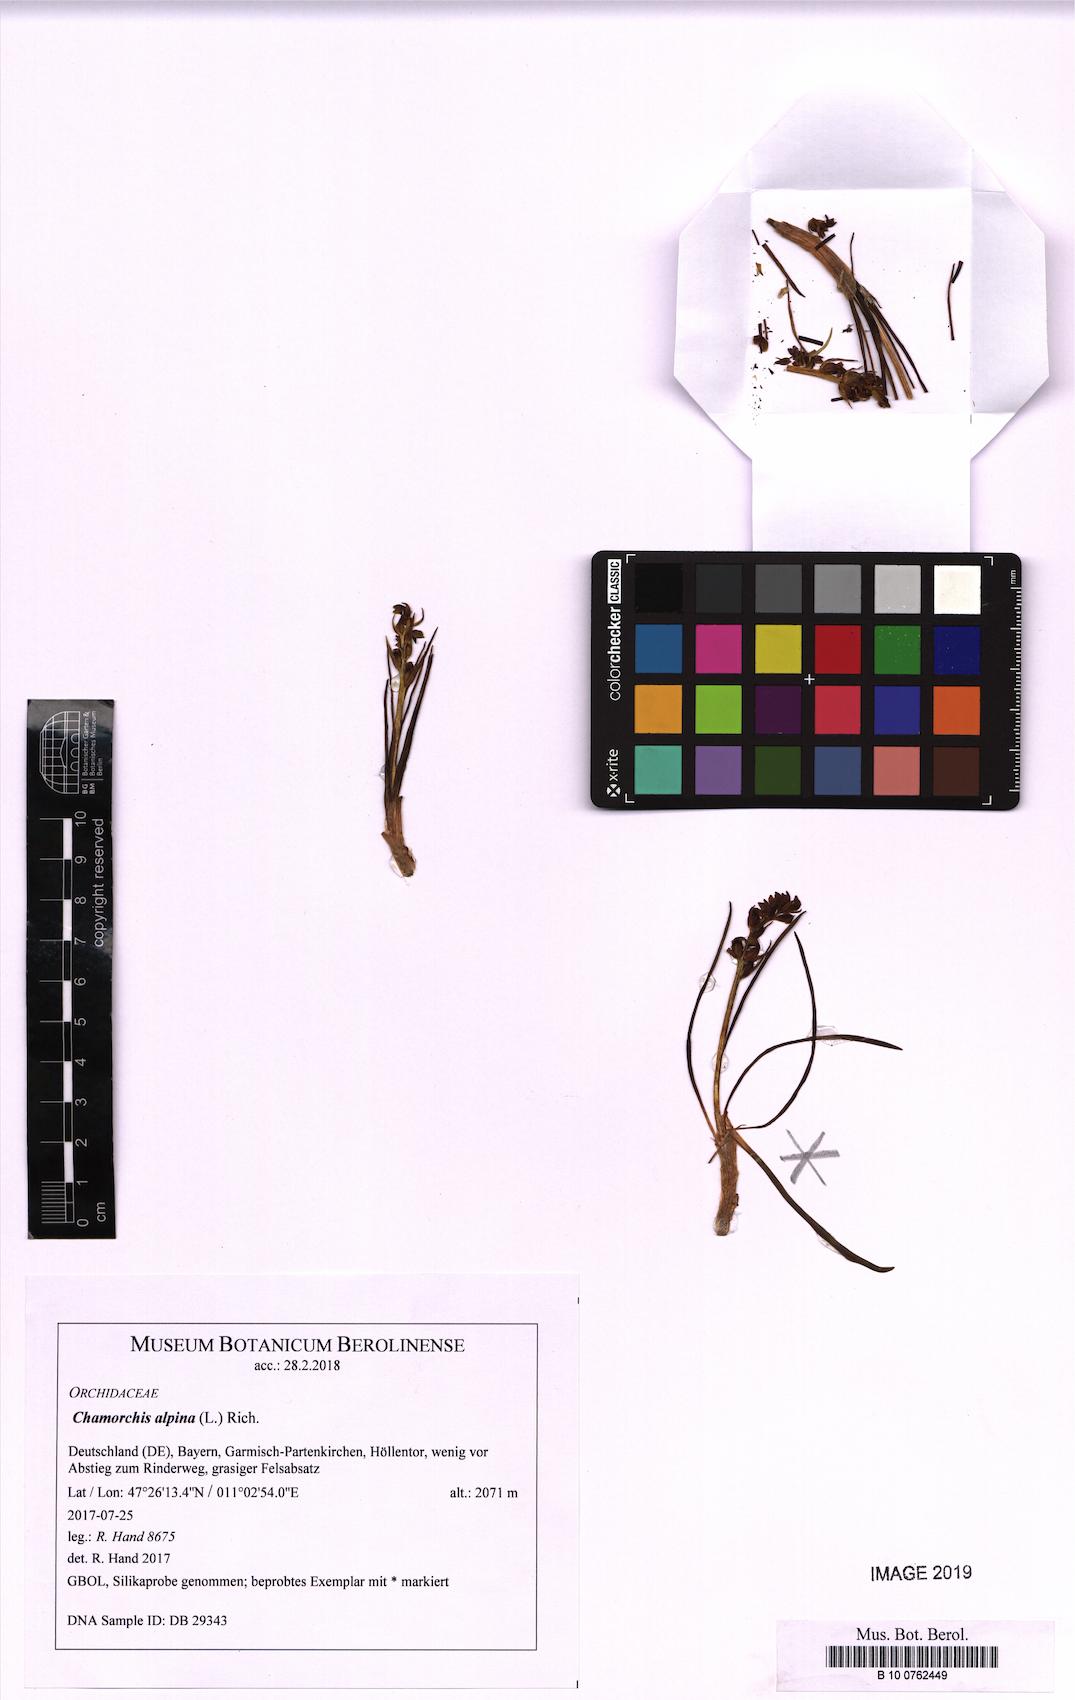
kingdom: Plantae
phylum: Tracheophyta
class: Liliopsida
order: Asparagales
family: Orchidaceae
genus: Chamorchis
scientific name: Chamorchis alpina
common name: Alpine chamorchis
